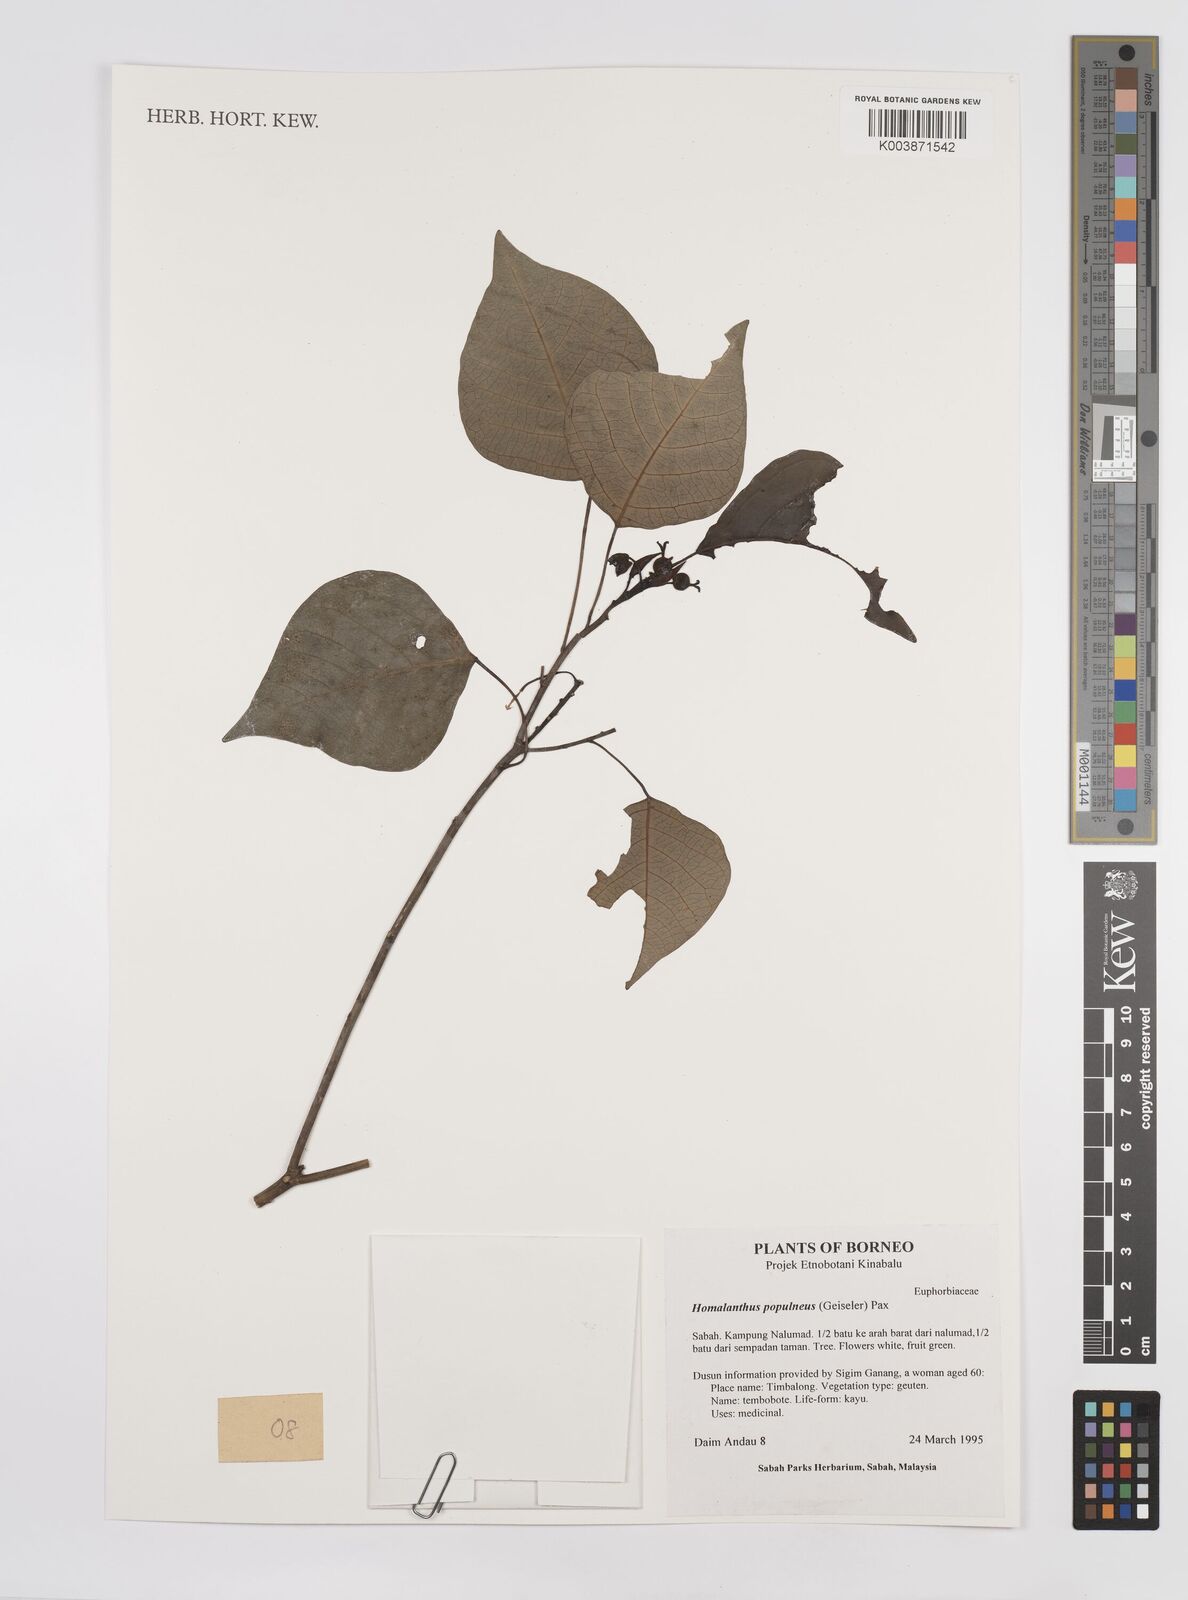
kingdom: Plantae
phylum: Tracheophyta
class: Magnoliopsida
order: Malpighiales
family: Euphorbiaceae
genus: Homalanthus
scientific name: Homalanthus populneus
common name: Spurge
